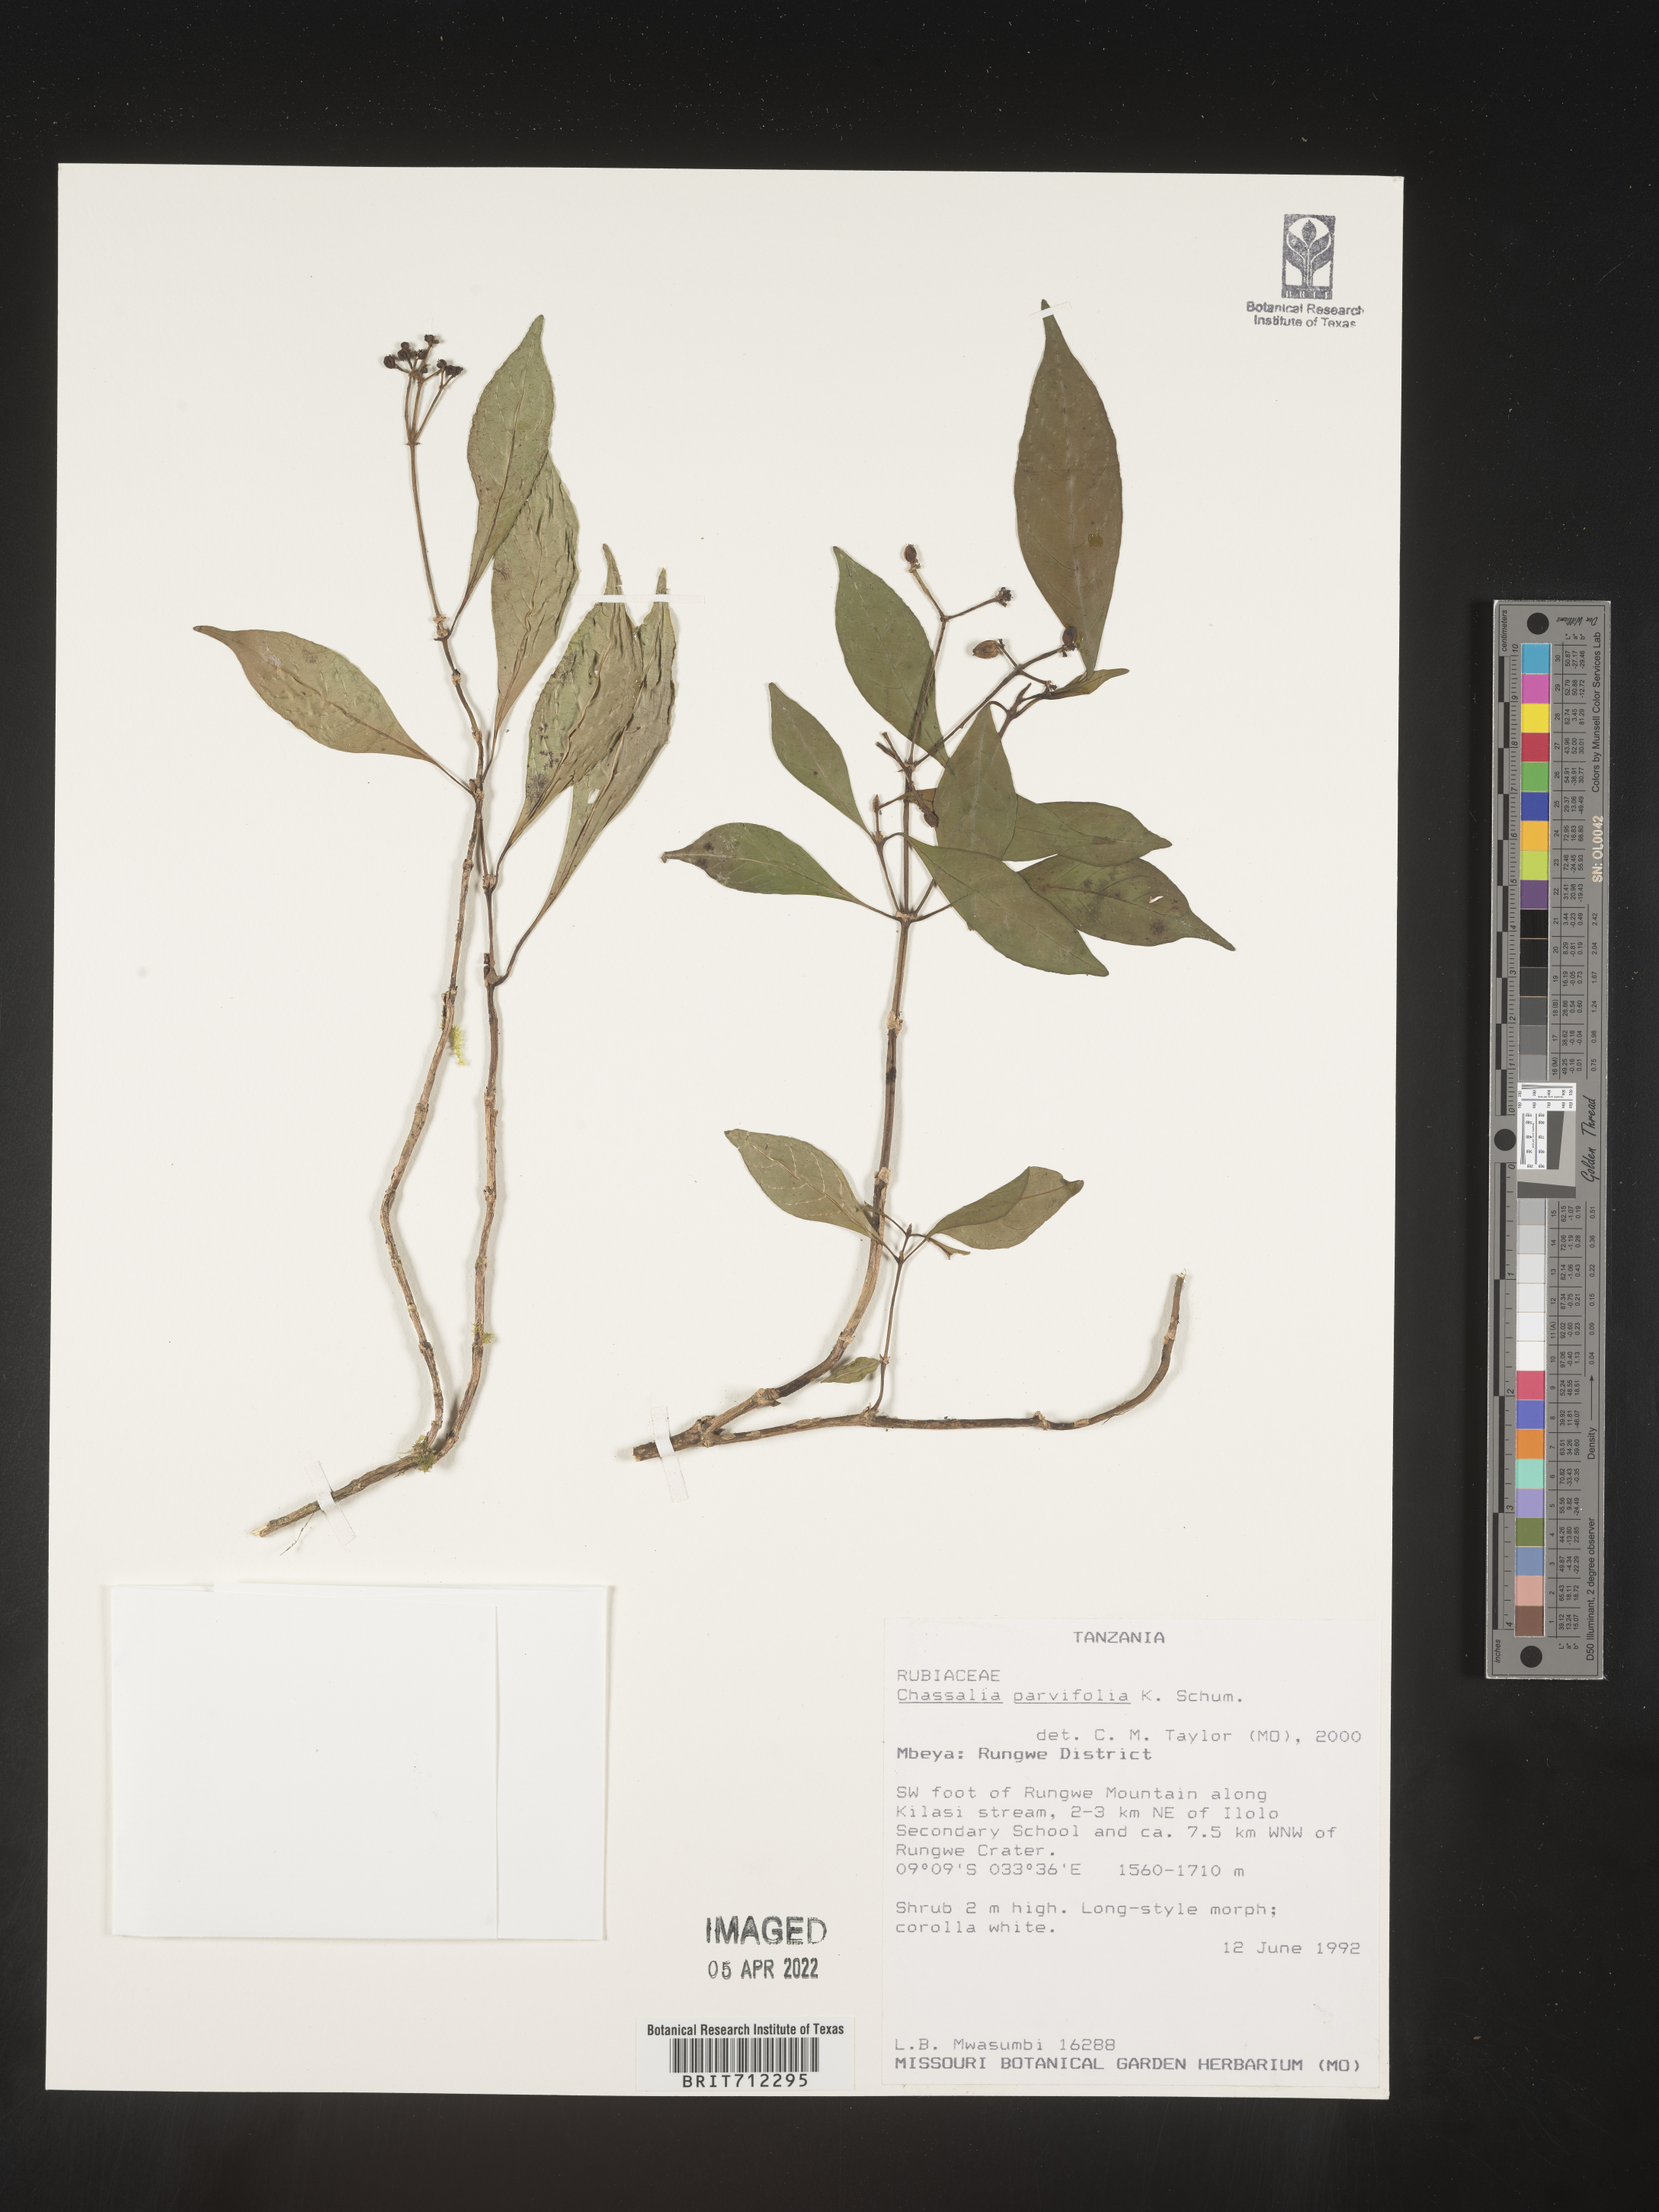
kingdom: Plantae
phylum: Tracheophyta
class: Magnoliopsida
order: Gentianales
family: Rubiaceae
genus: Chassalia
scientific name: Chassalia
